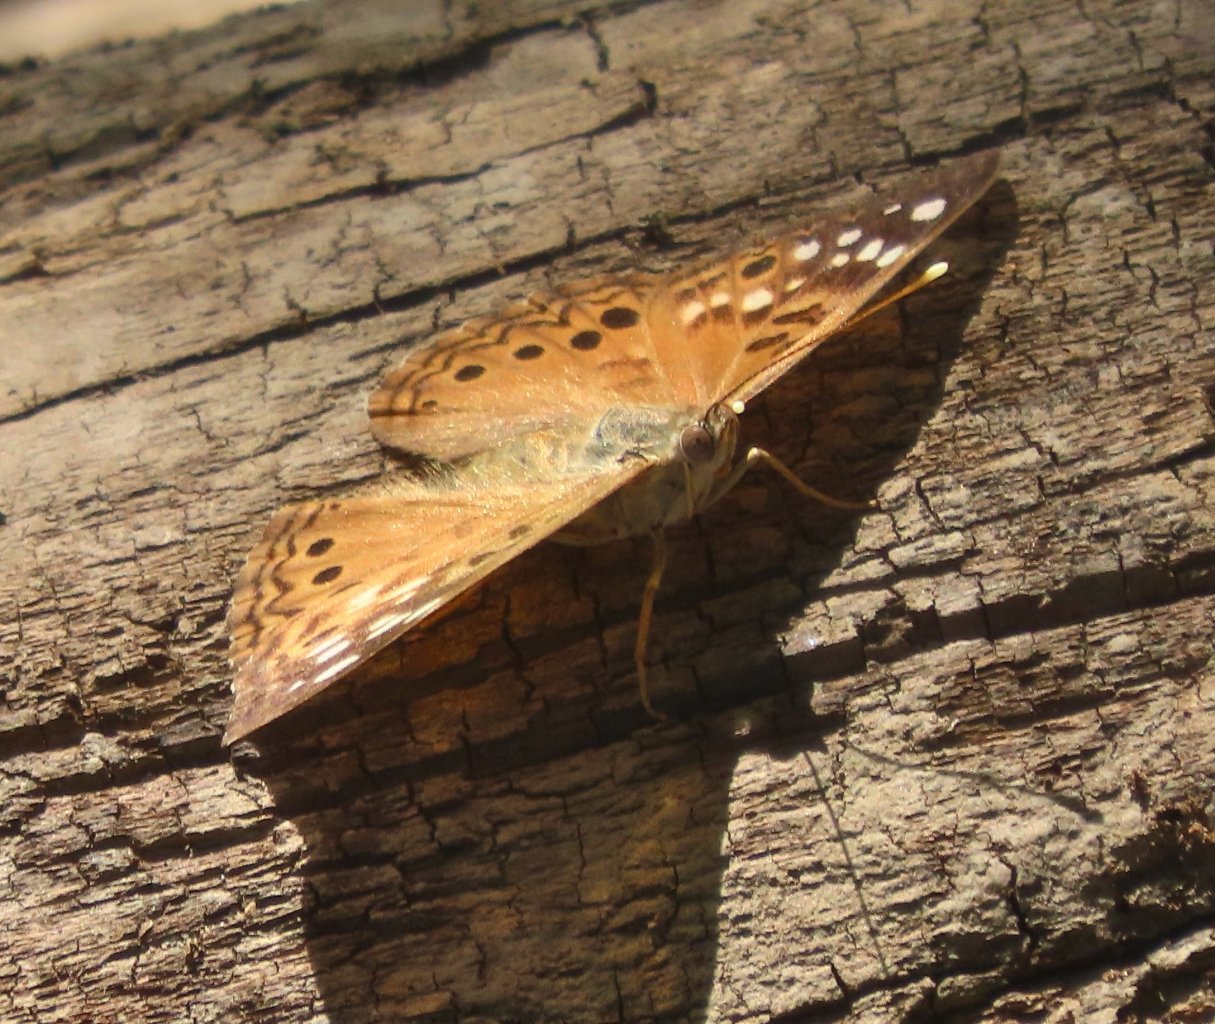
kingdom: Animalia
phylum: Arthropoda
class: Insecta
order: Lepidoptera
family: Nymphalidae
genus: Asterocampa
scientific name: Asterocampa celtis
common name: Hackberry Emperor
